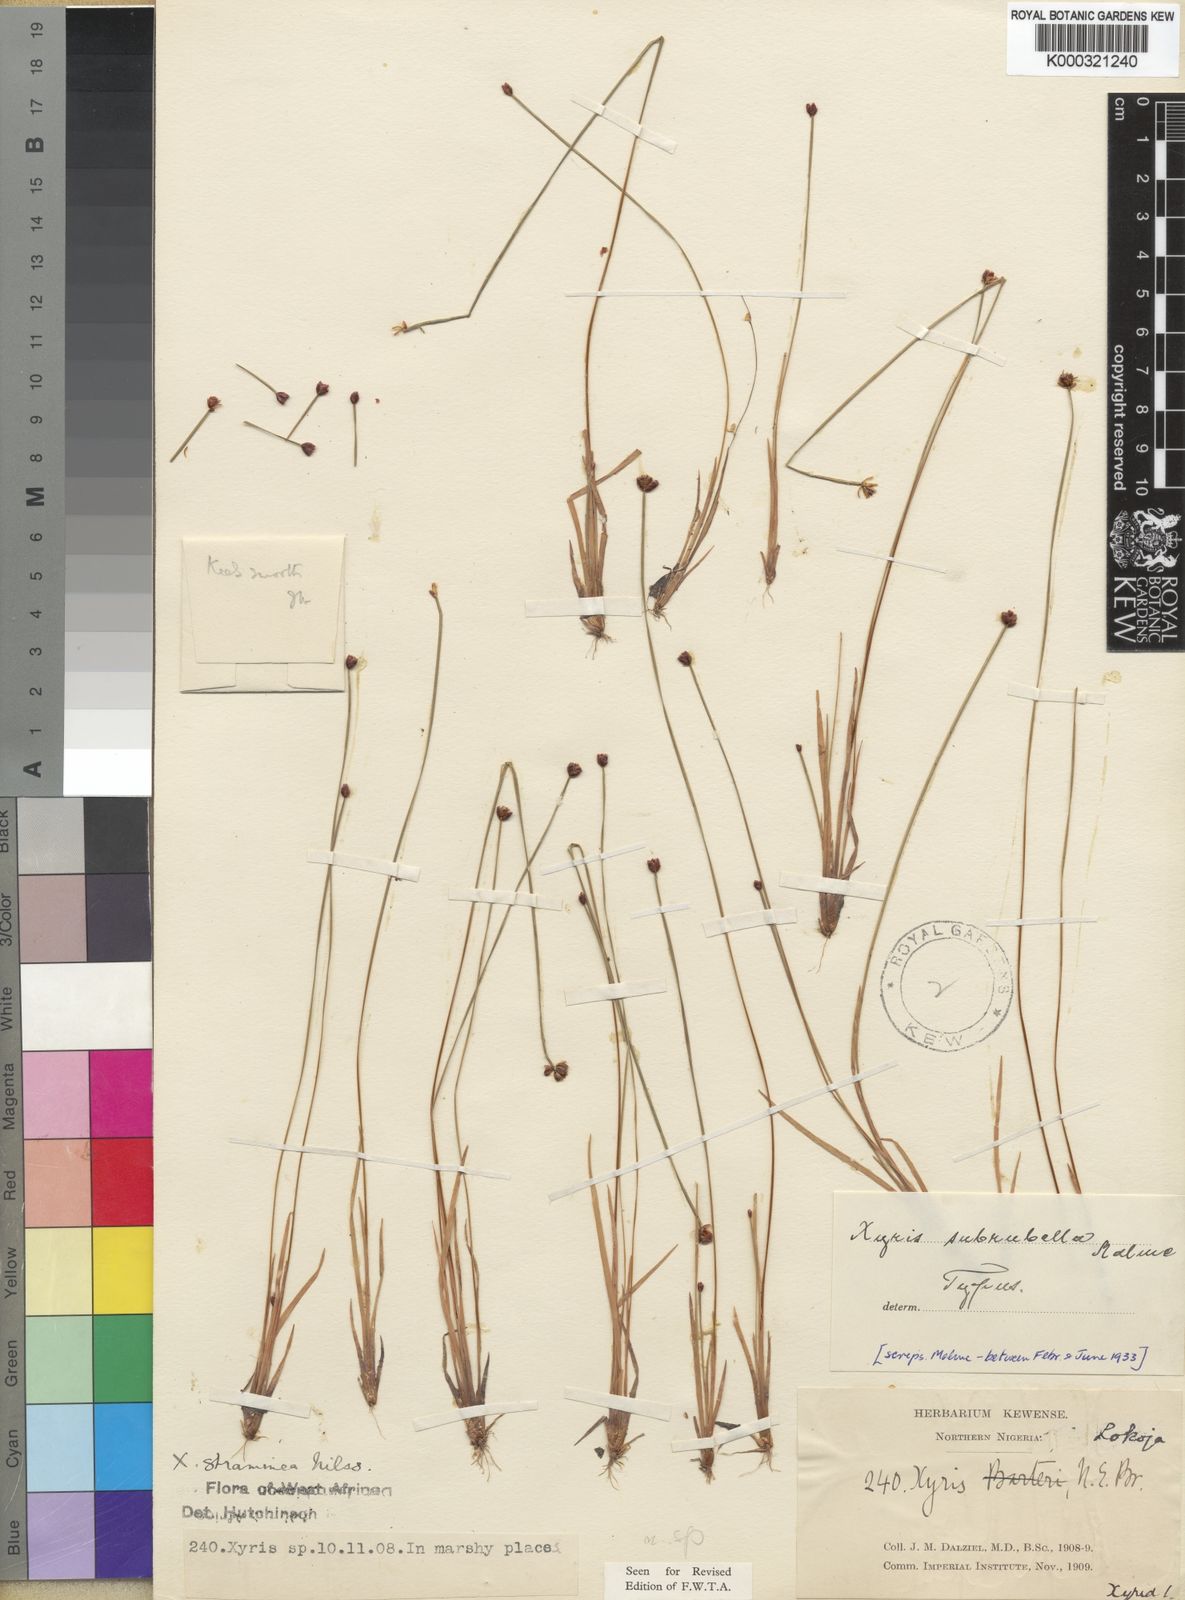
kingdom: Plantae
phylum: Tracheophyta
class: Liliopsida
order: Poales
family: Xyridaceae
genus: Xyris
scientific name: Xyris rubella
